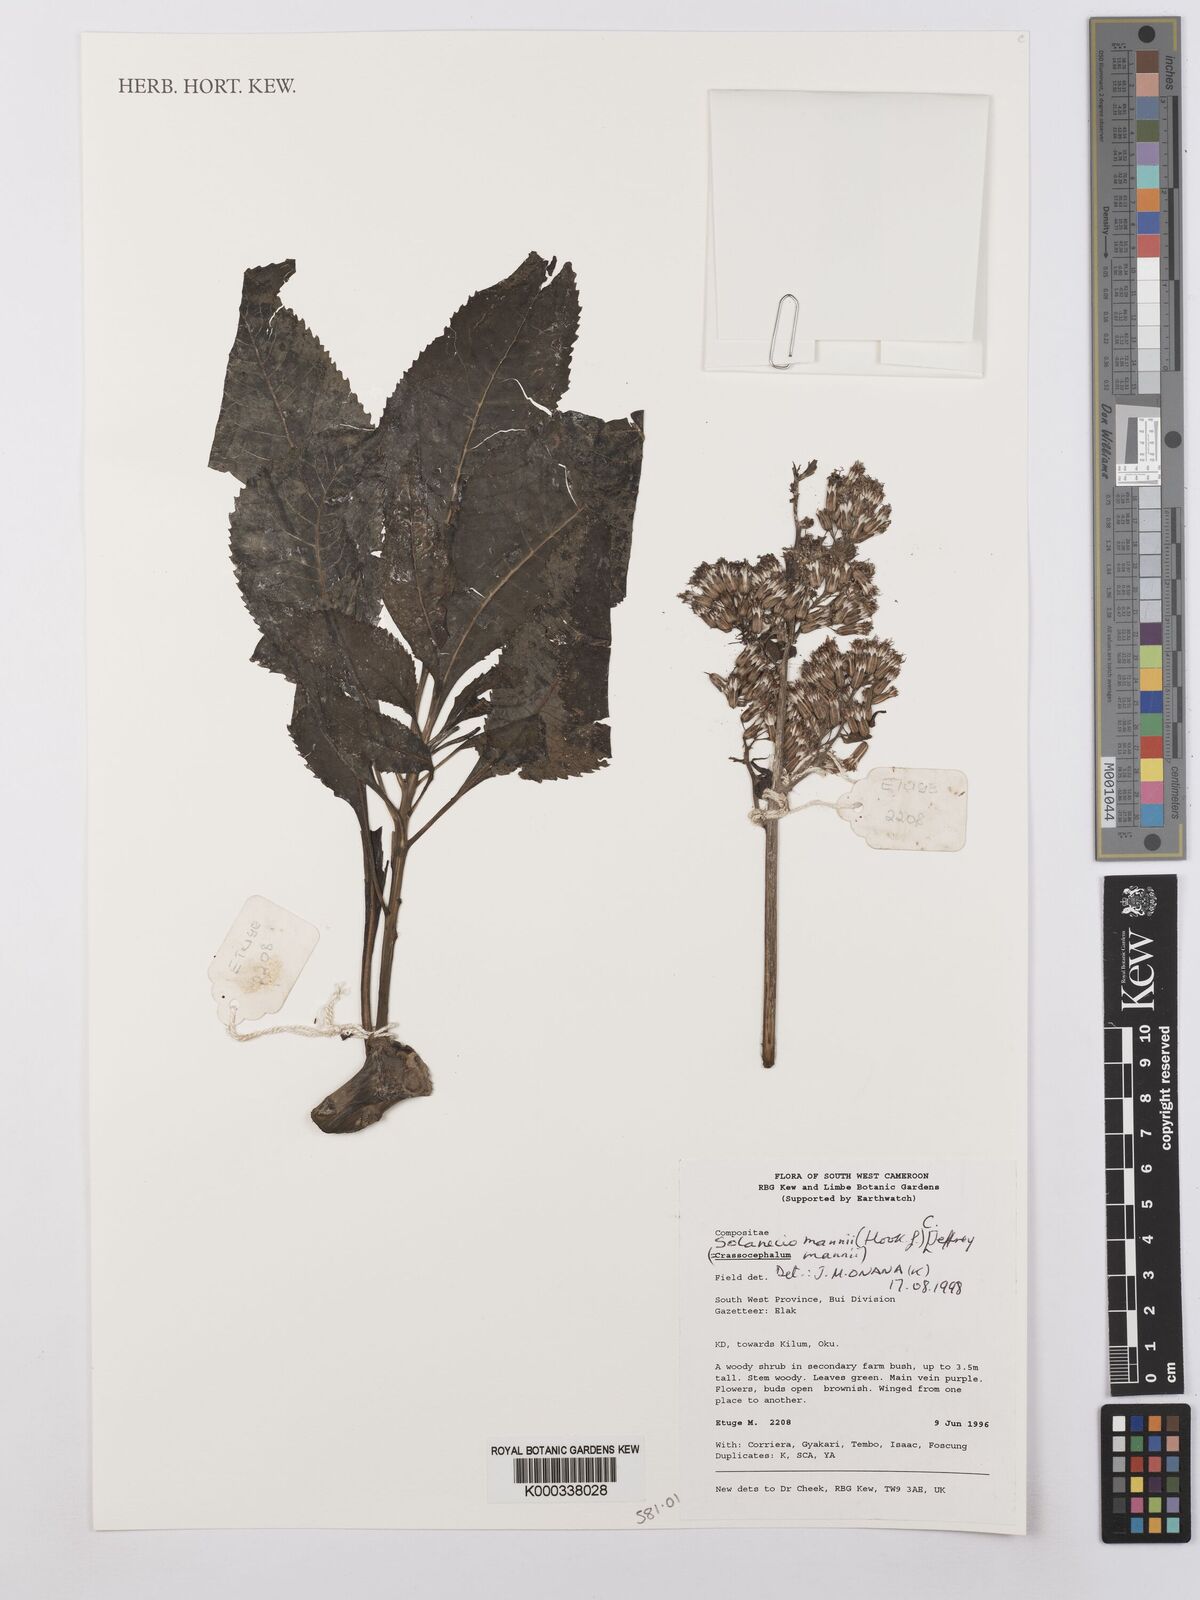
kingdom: Plantae
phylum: Tracheophyta
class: Magnoliopsida
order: Asterales
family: Asteraceae
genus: Solanecio
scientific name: Solanecio mannii
